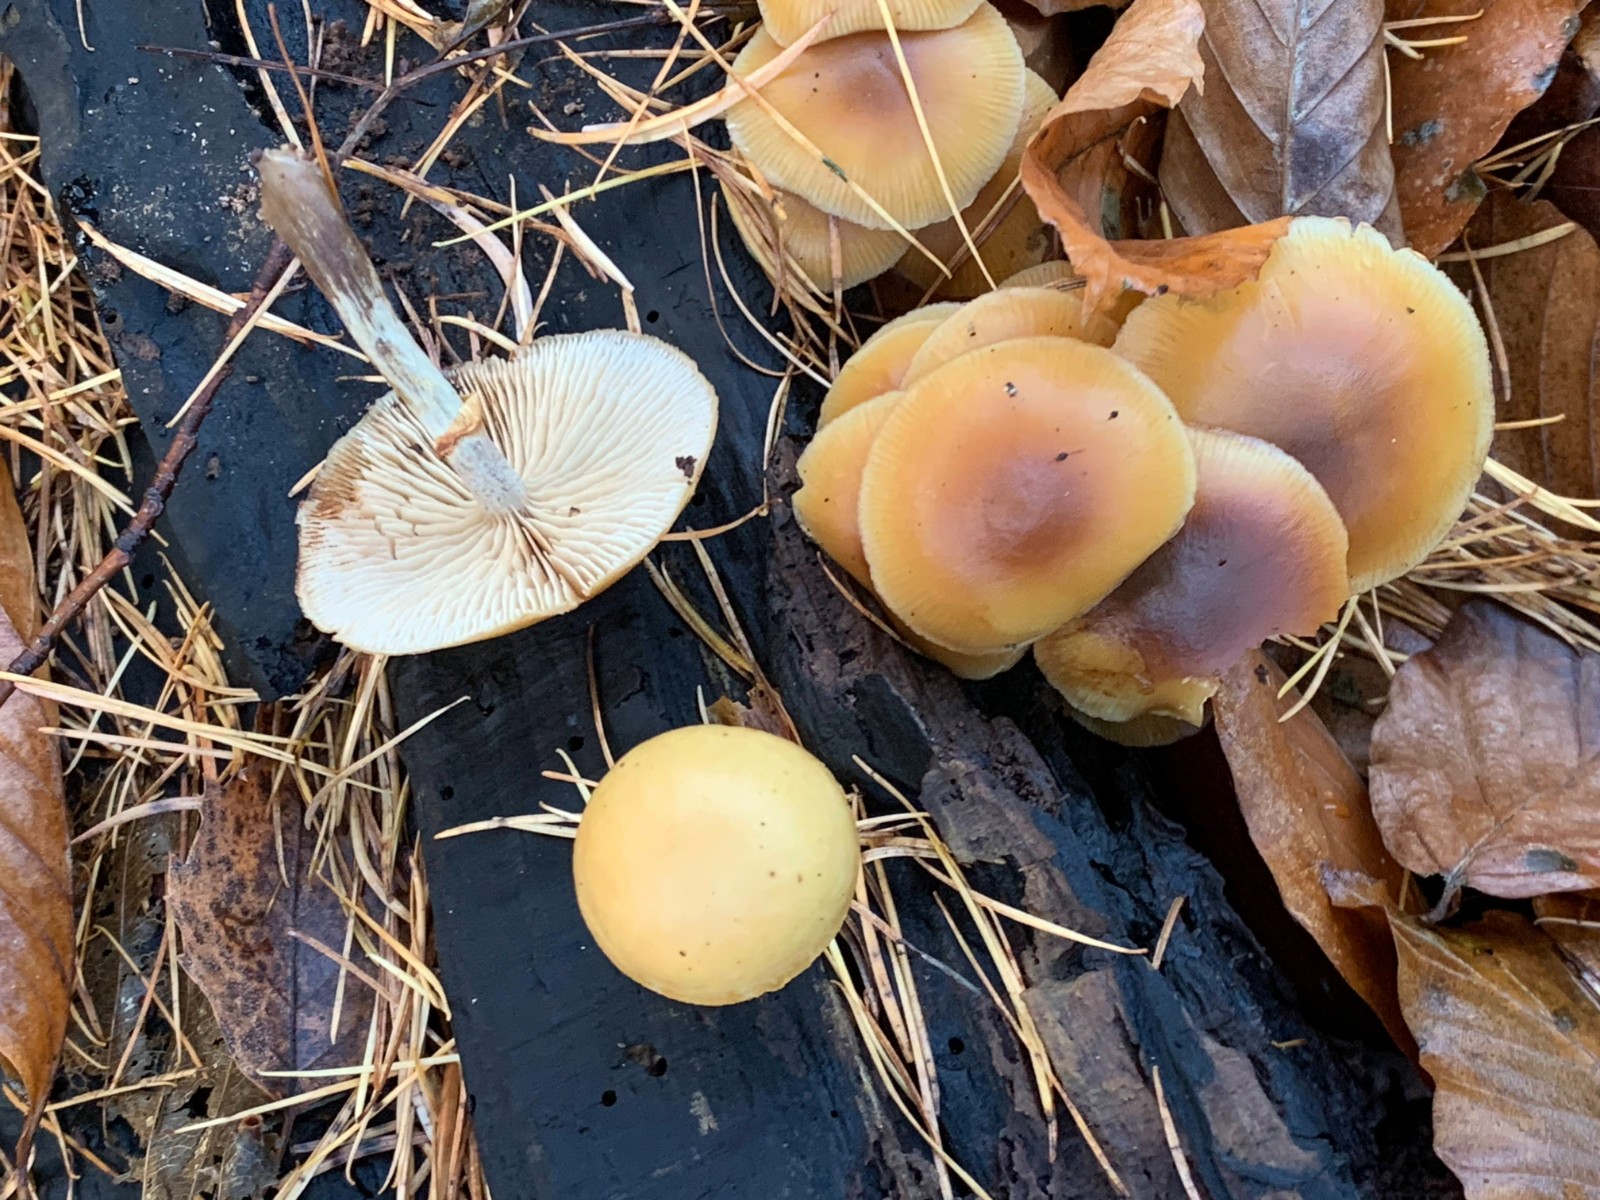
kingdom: Fungi
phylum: Basidiomycota
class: Agaricomycetes
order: Agaricales
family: Hymenogastraceae
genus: Galerina
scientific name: Galerina marginata
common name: randbæltet hjelmhat
